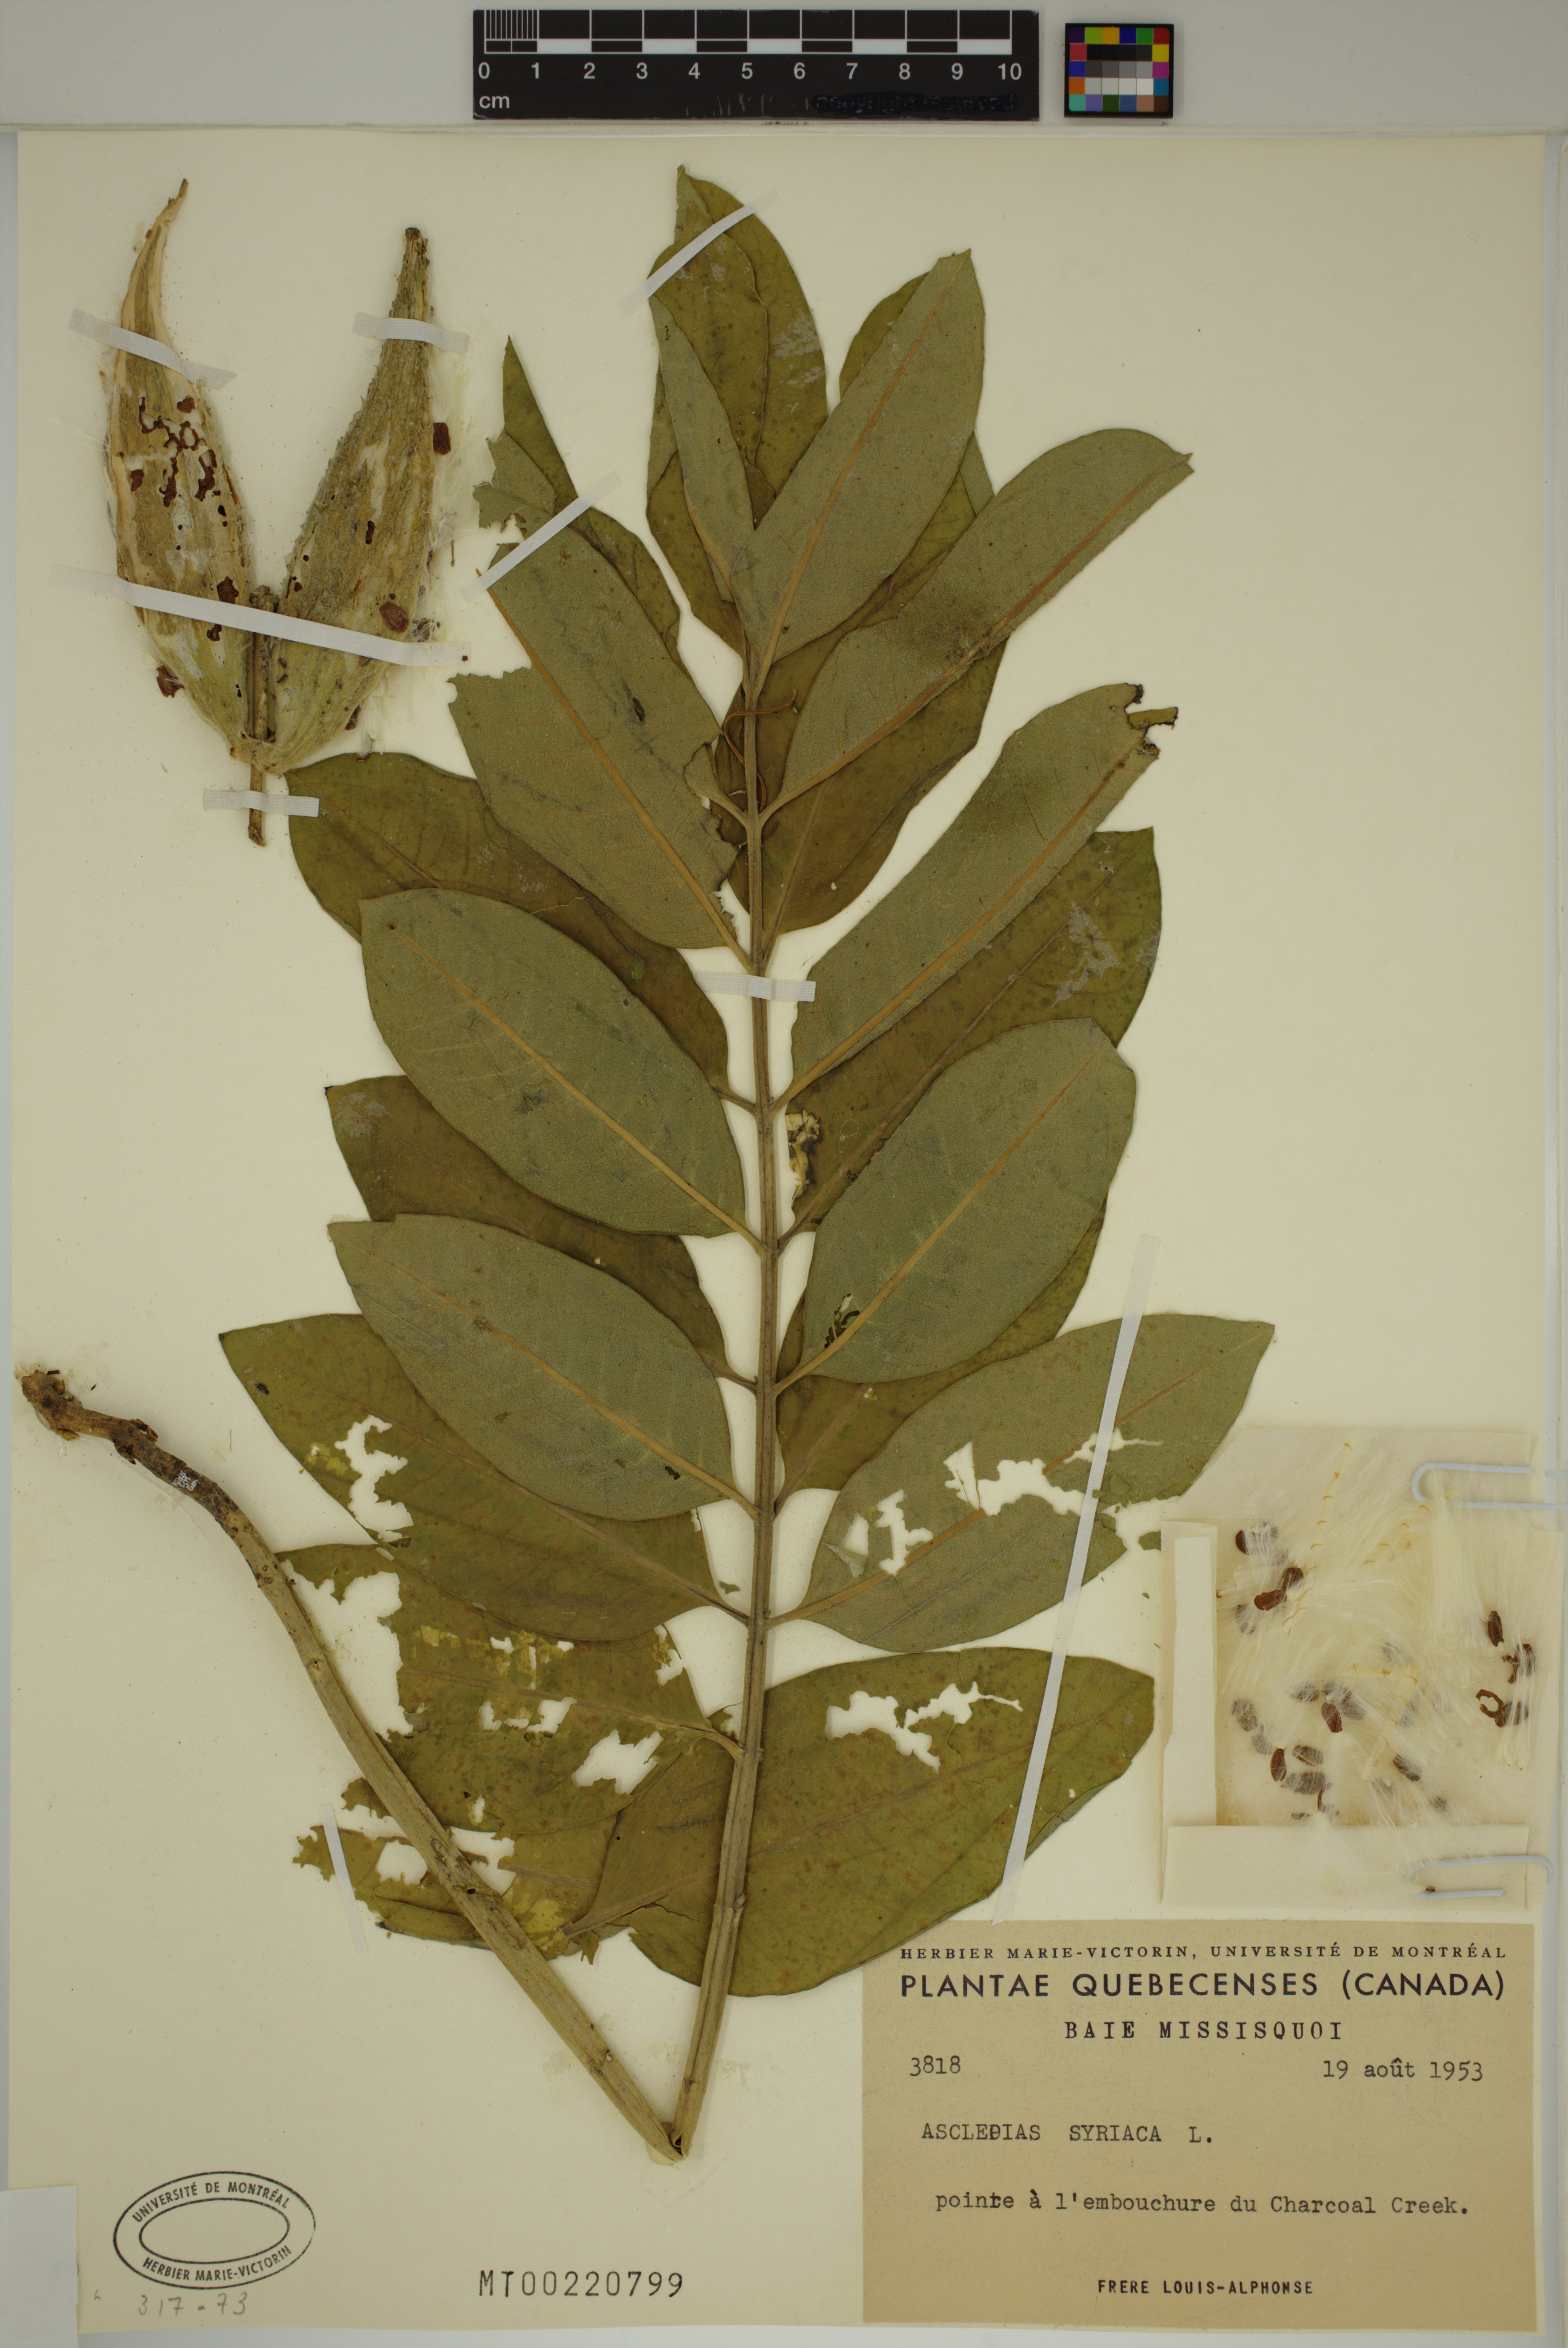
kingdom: Plantae
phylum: Tracheophyta
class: Magnoliopsida
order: Gentianales
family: Apocynaceae
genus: Asclepias
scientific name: Asclepias syriaca
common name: Common milkweed
